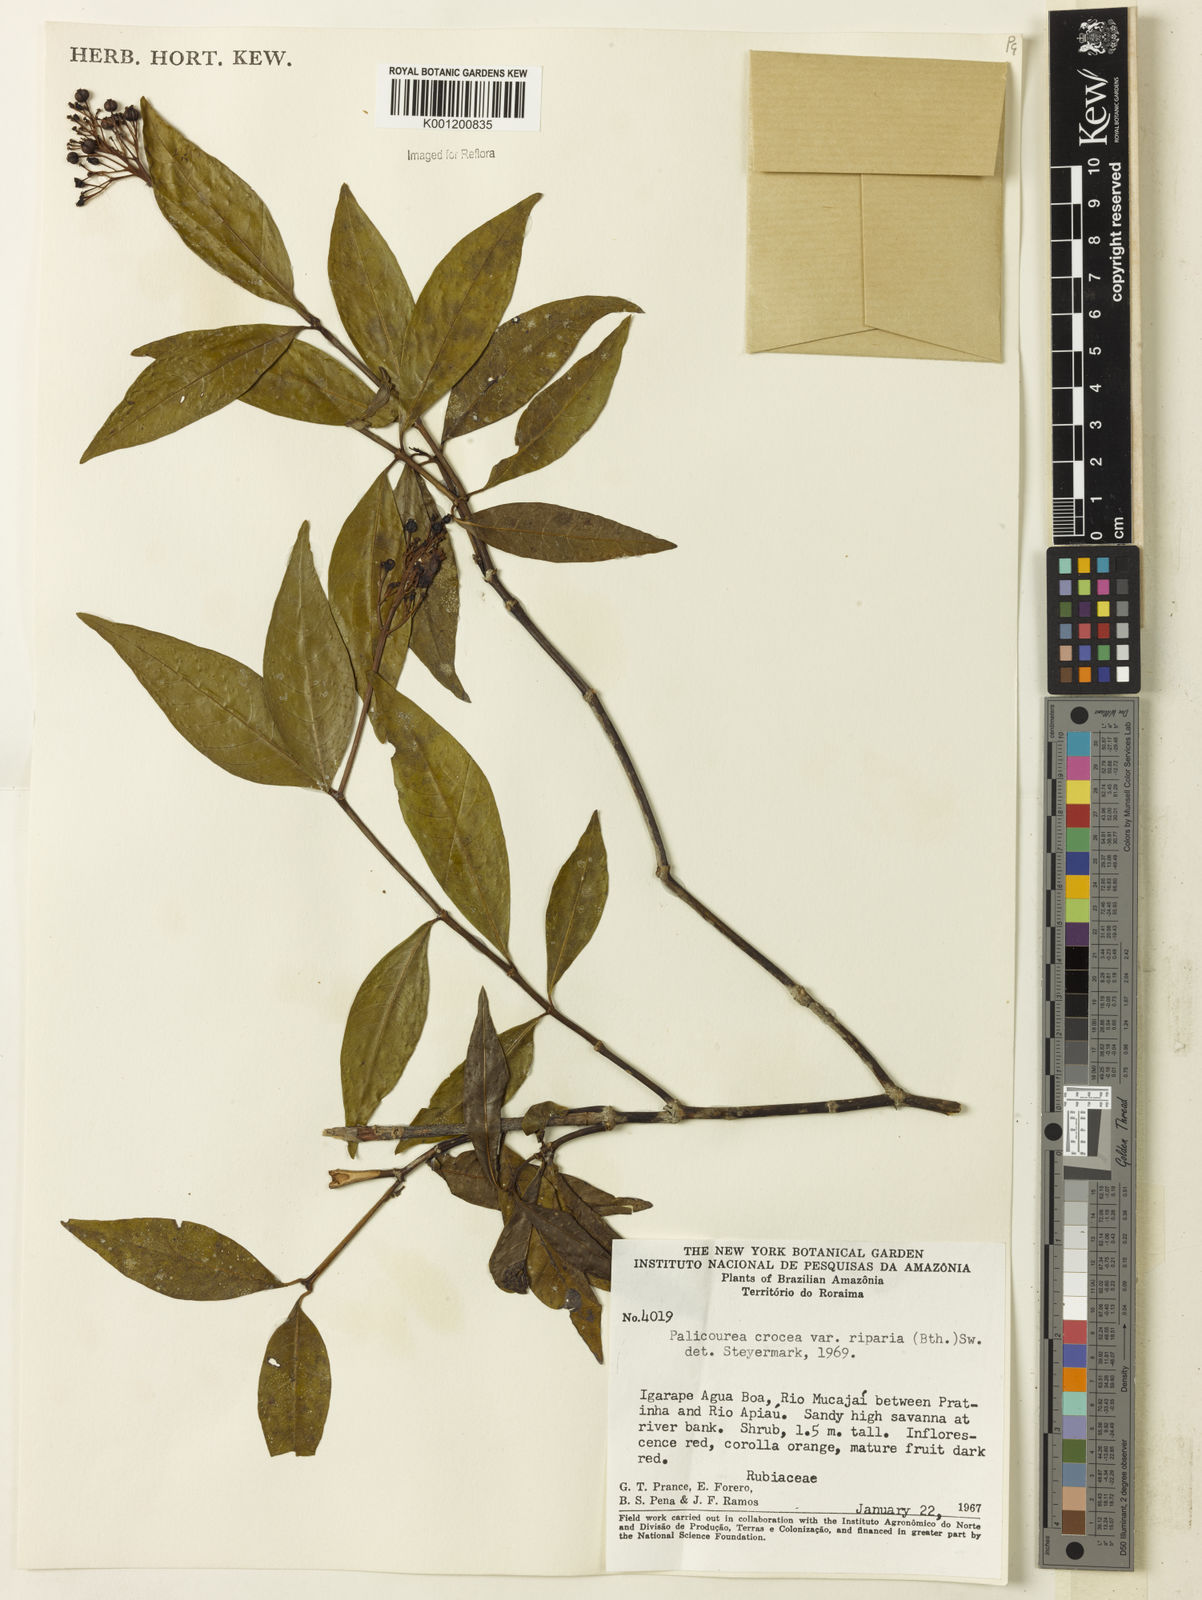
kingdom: Plantae
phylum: Tracheophyta
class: Magnoliopsida
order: Gentianales
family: Rubiaceae
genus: Palicourea
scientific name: Palicourea croceoides
